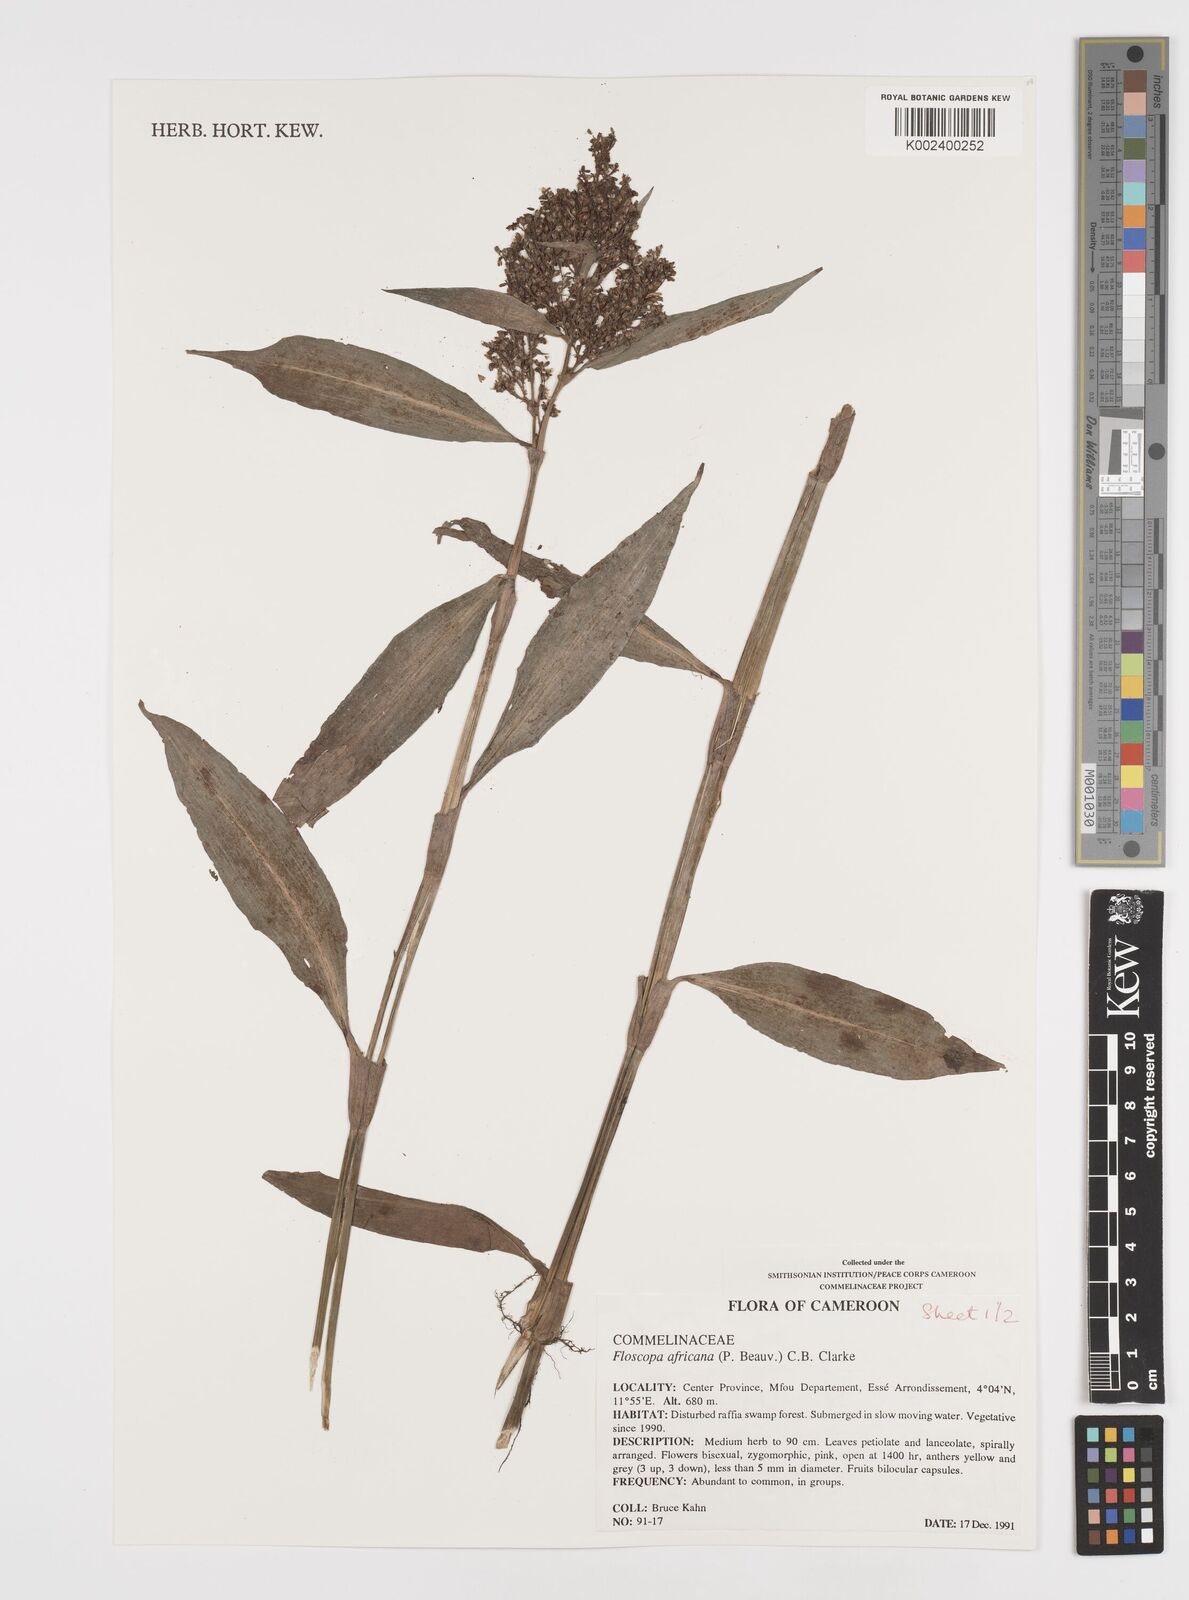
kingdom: Plantae
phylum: Tracheophyta
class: Liliopsida
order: Commelinales
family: Commelinaceae
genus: Floscopa
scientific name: Floscopa africana
